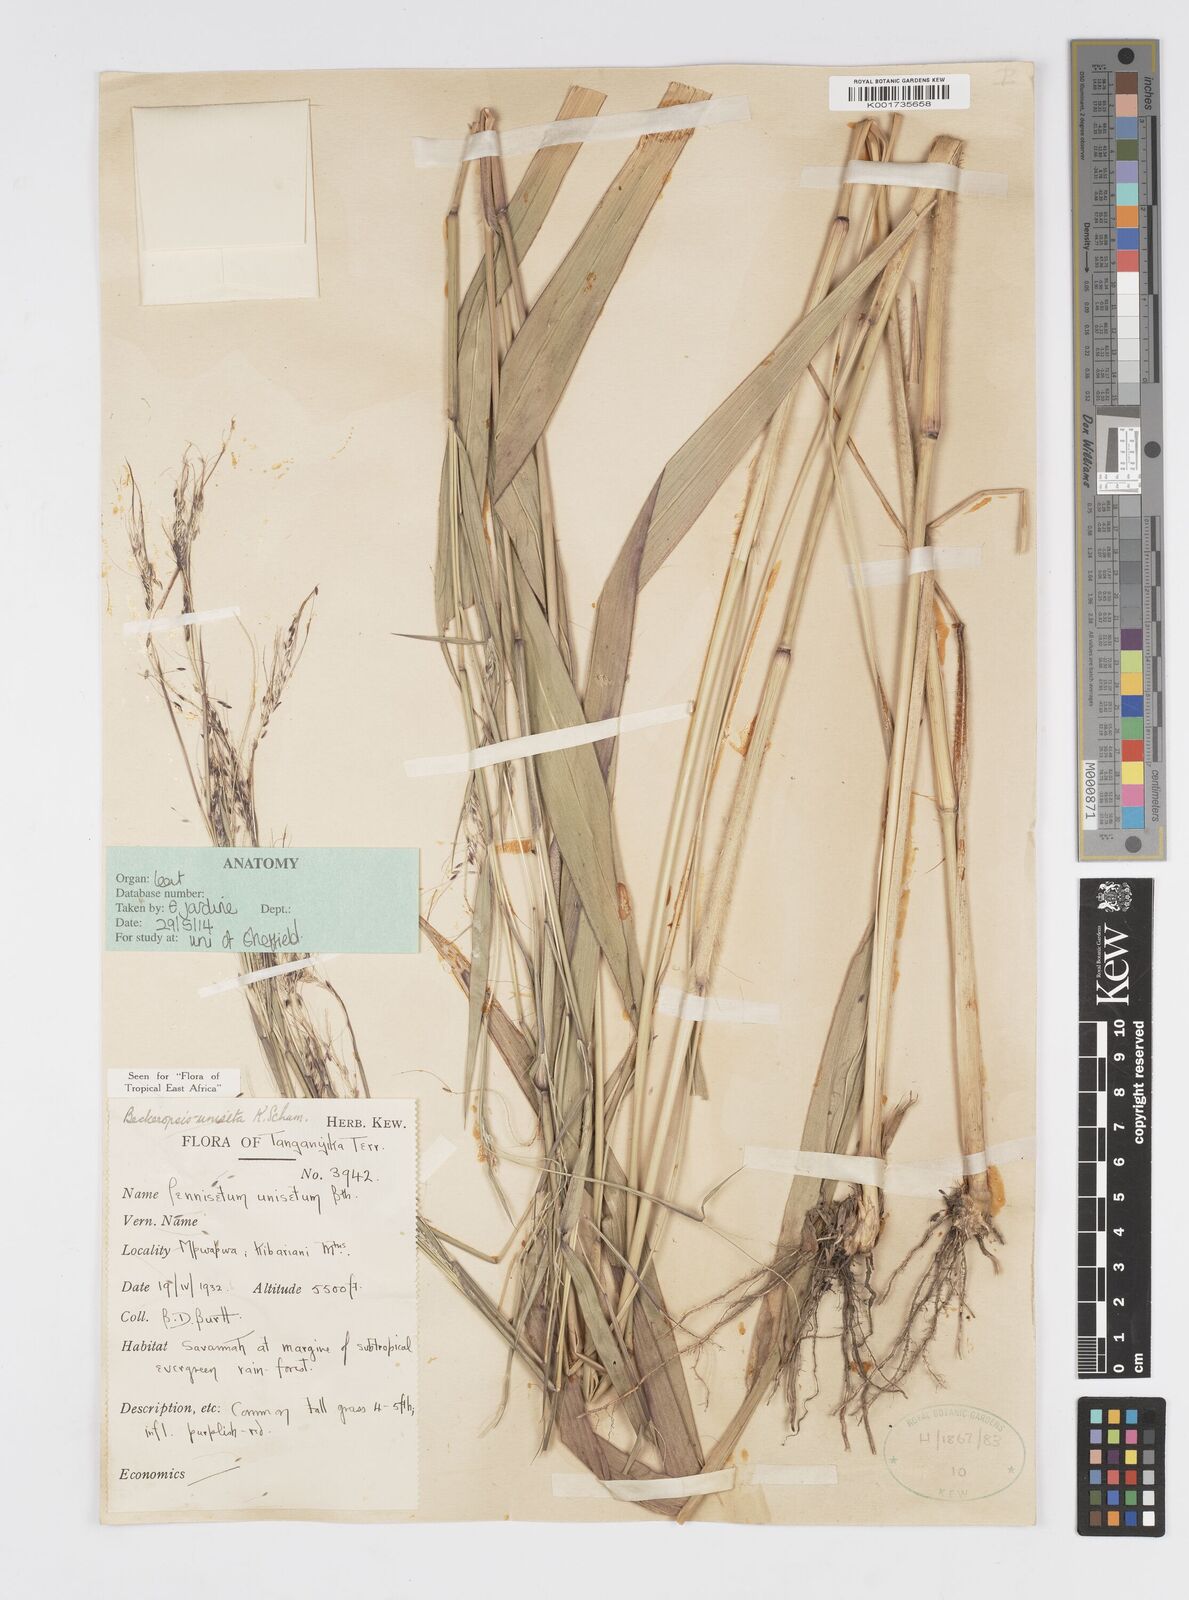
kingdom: Plantae
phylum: Tracheophyta
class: Liliopsida
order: Poales
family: Poaceae
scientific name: Poaceae
